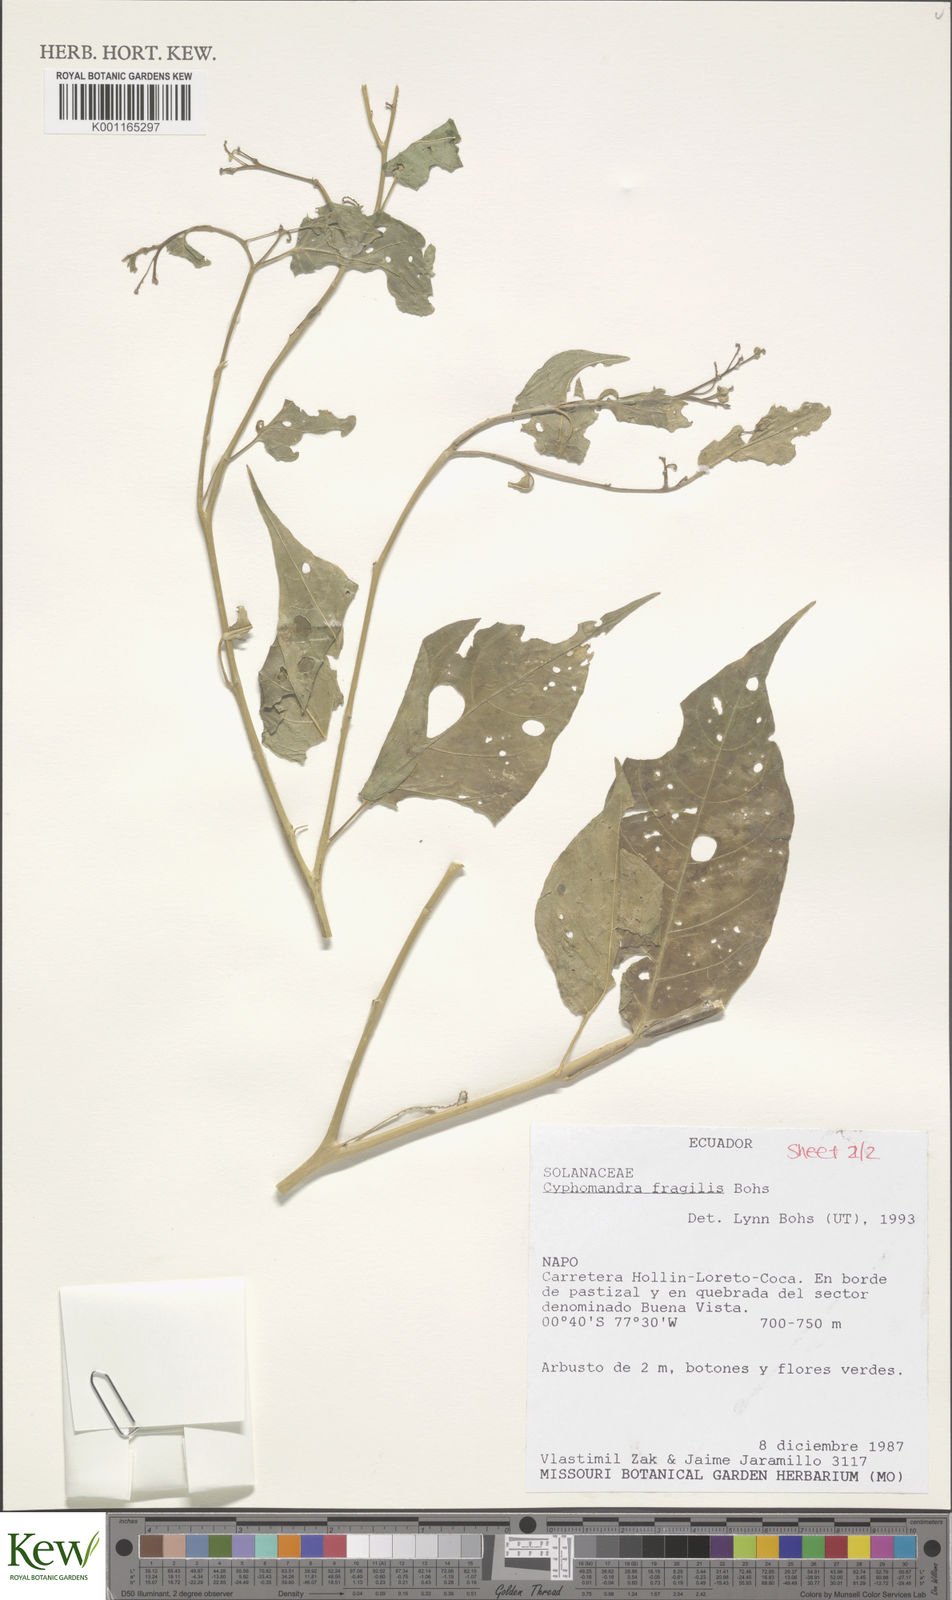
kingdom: Plantae
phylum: Tracheophyta
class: Magnoliopsida
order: Solanales
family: Solanaceae
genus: Solanum
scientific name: Solanum oxyphyllum
